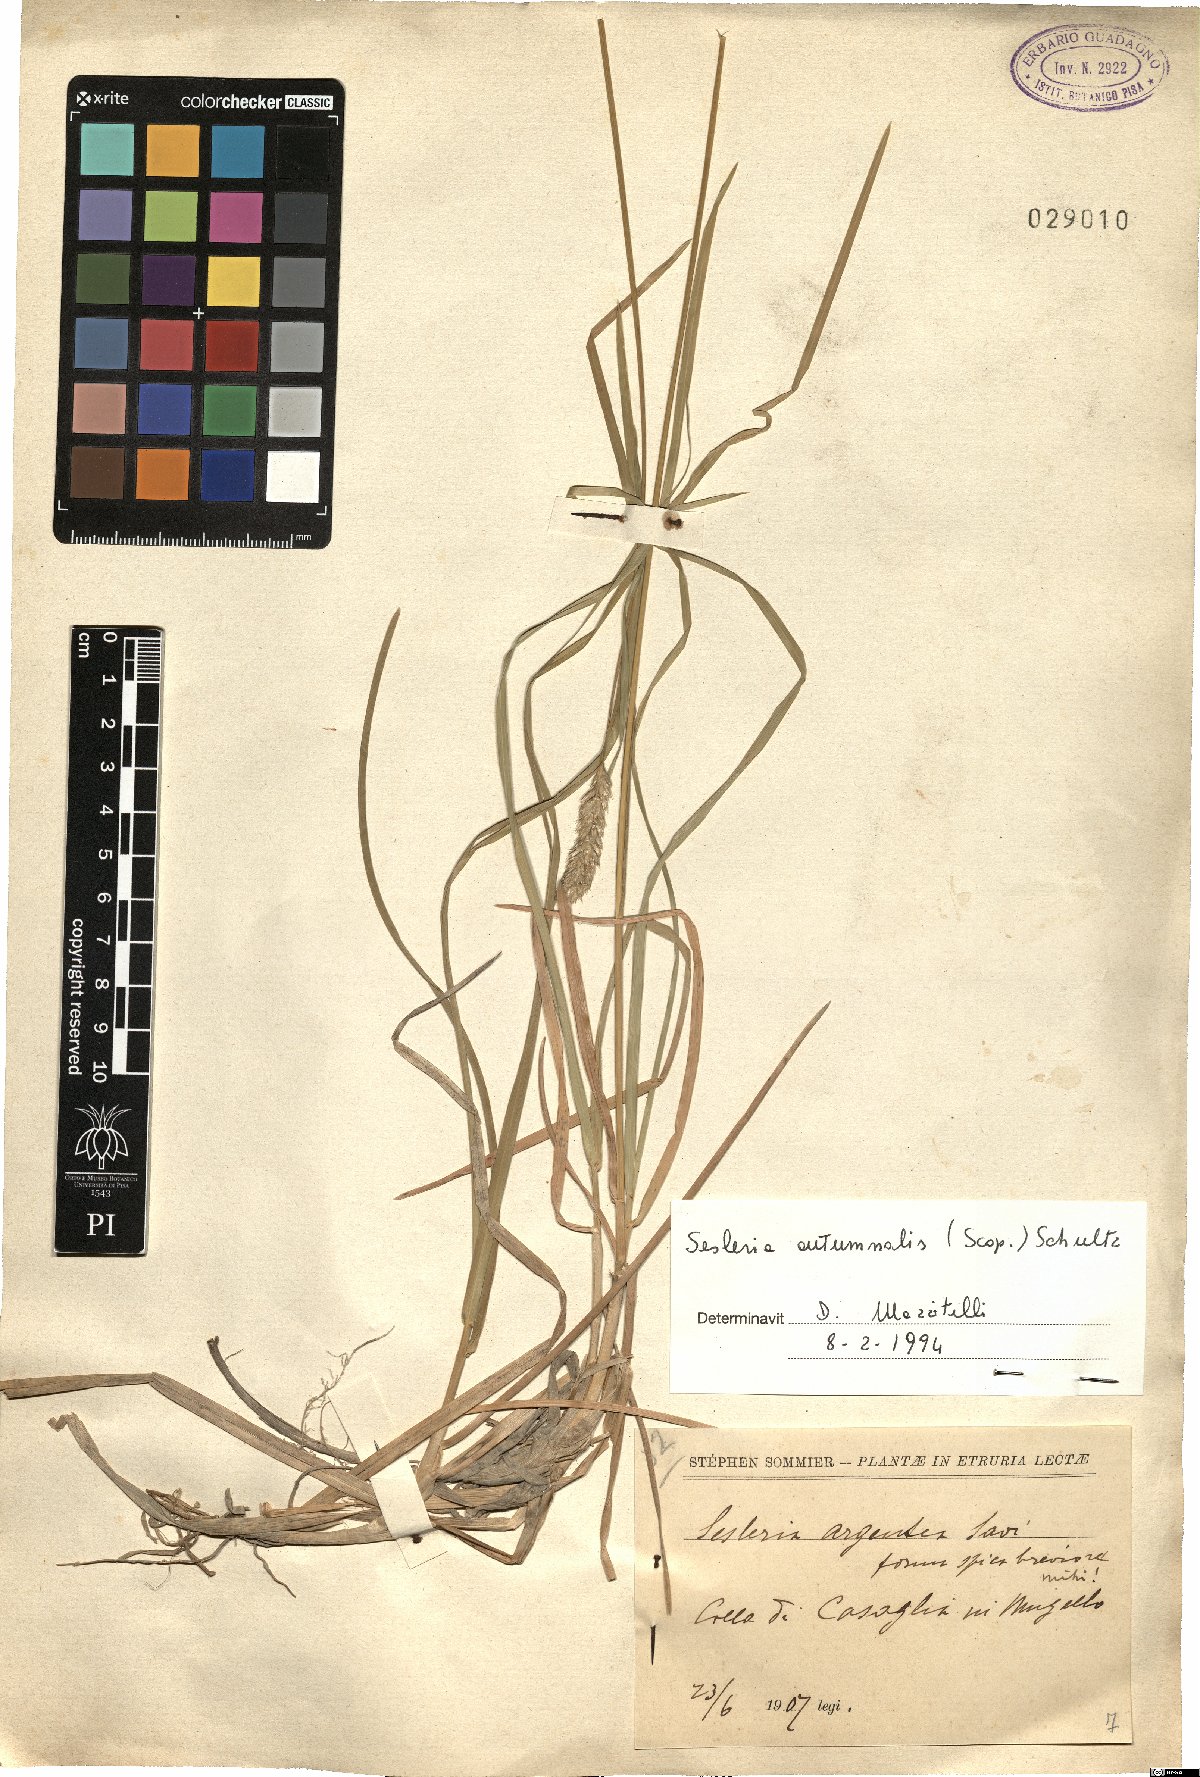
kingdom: Plantae
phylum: Tracheophyta
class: Liliopsida
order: Poales
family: Poaceae
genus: Sesleria
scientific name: Sesleria autumnalis
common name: Autumn moor grass
